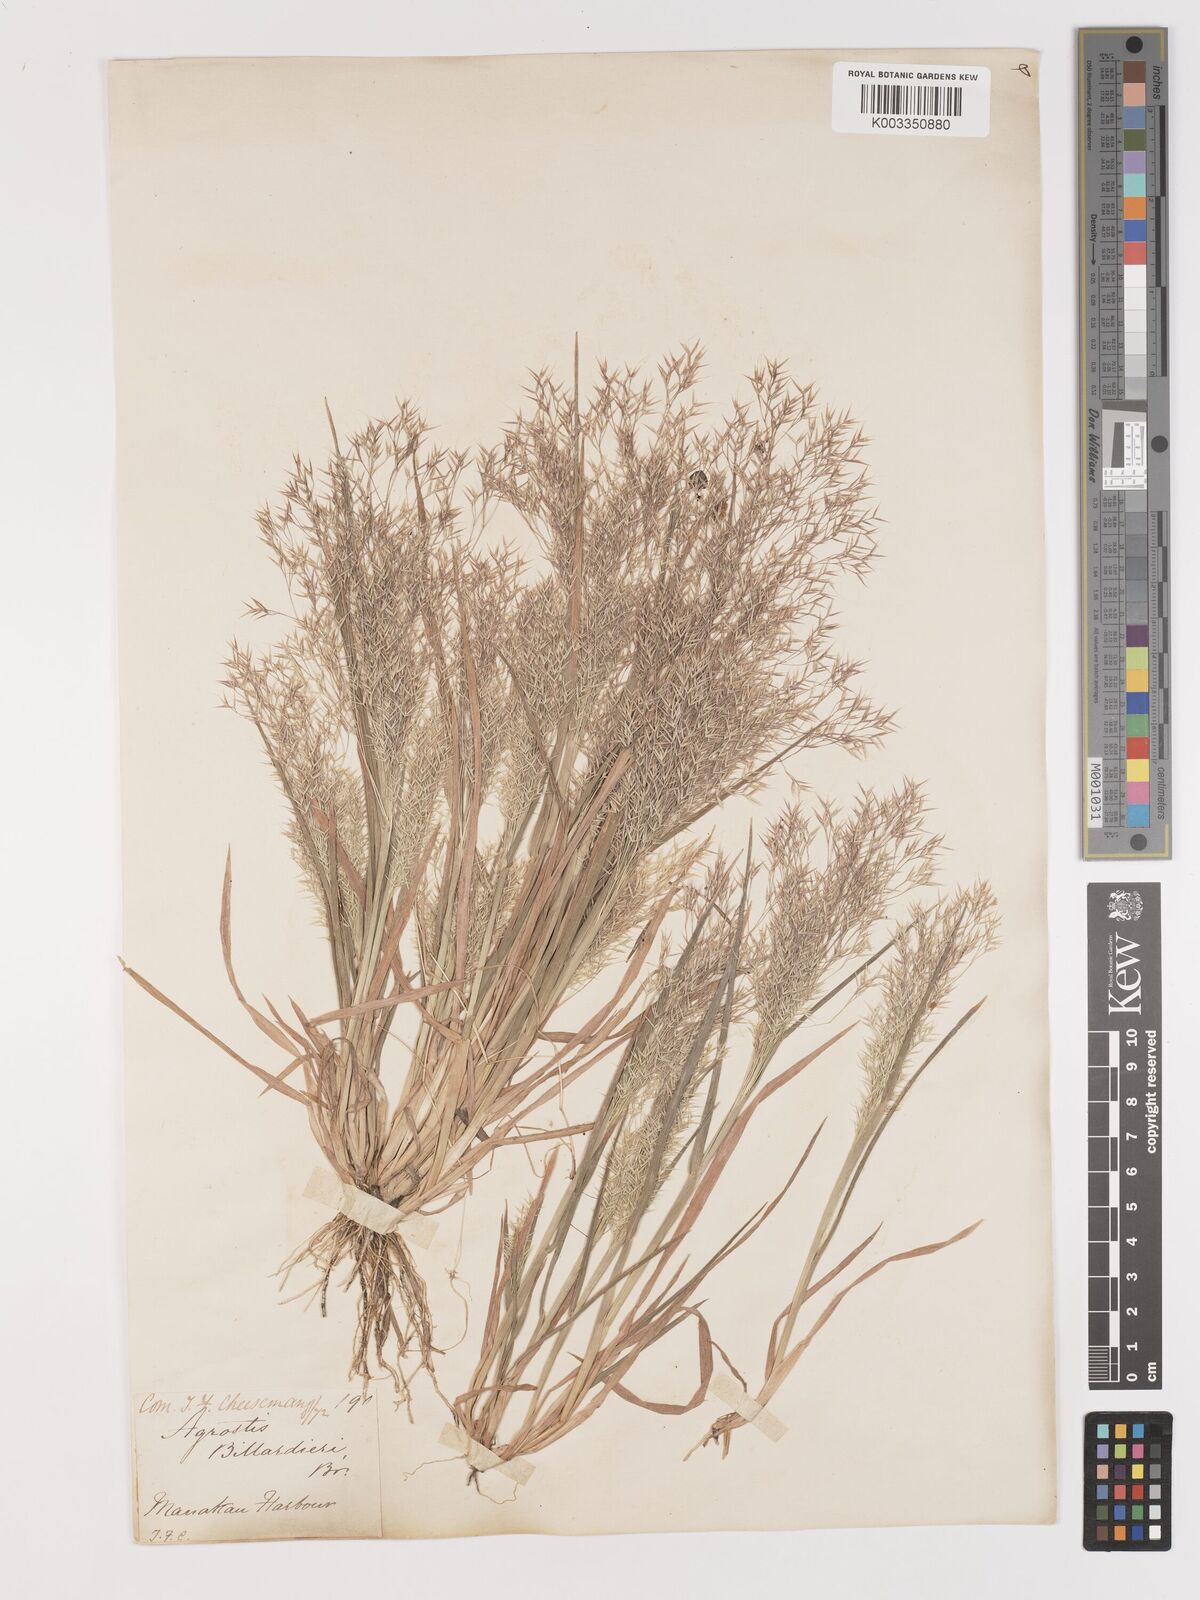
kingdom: Plantae
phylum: Tracheophyta
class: Liliopsida
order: Poales
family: Poaceae
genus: Lachnagrostis
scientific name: Lachnagrostis billardierei
